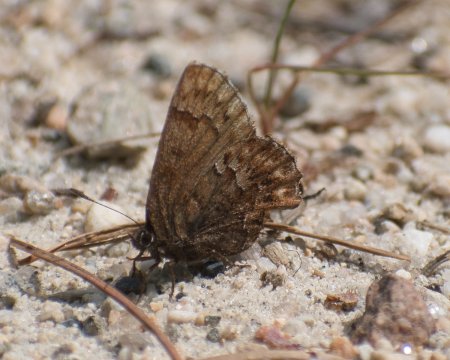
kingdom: Animalia
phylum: Arthropoda
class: Insecta
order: Lepidoptera
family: Lycaenidae
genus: Incisalia
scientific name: Incisalia eryphon
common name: Western Pine Elfin
